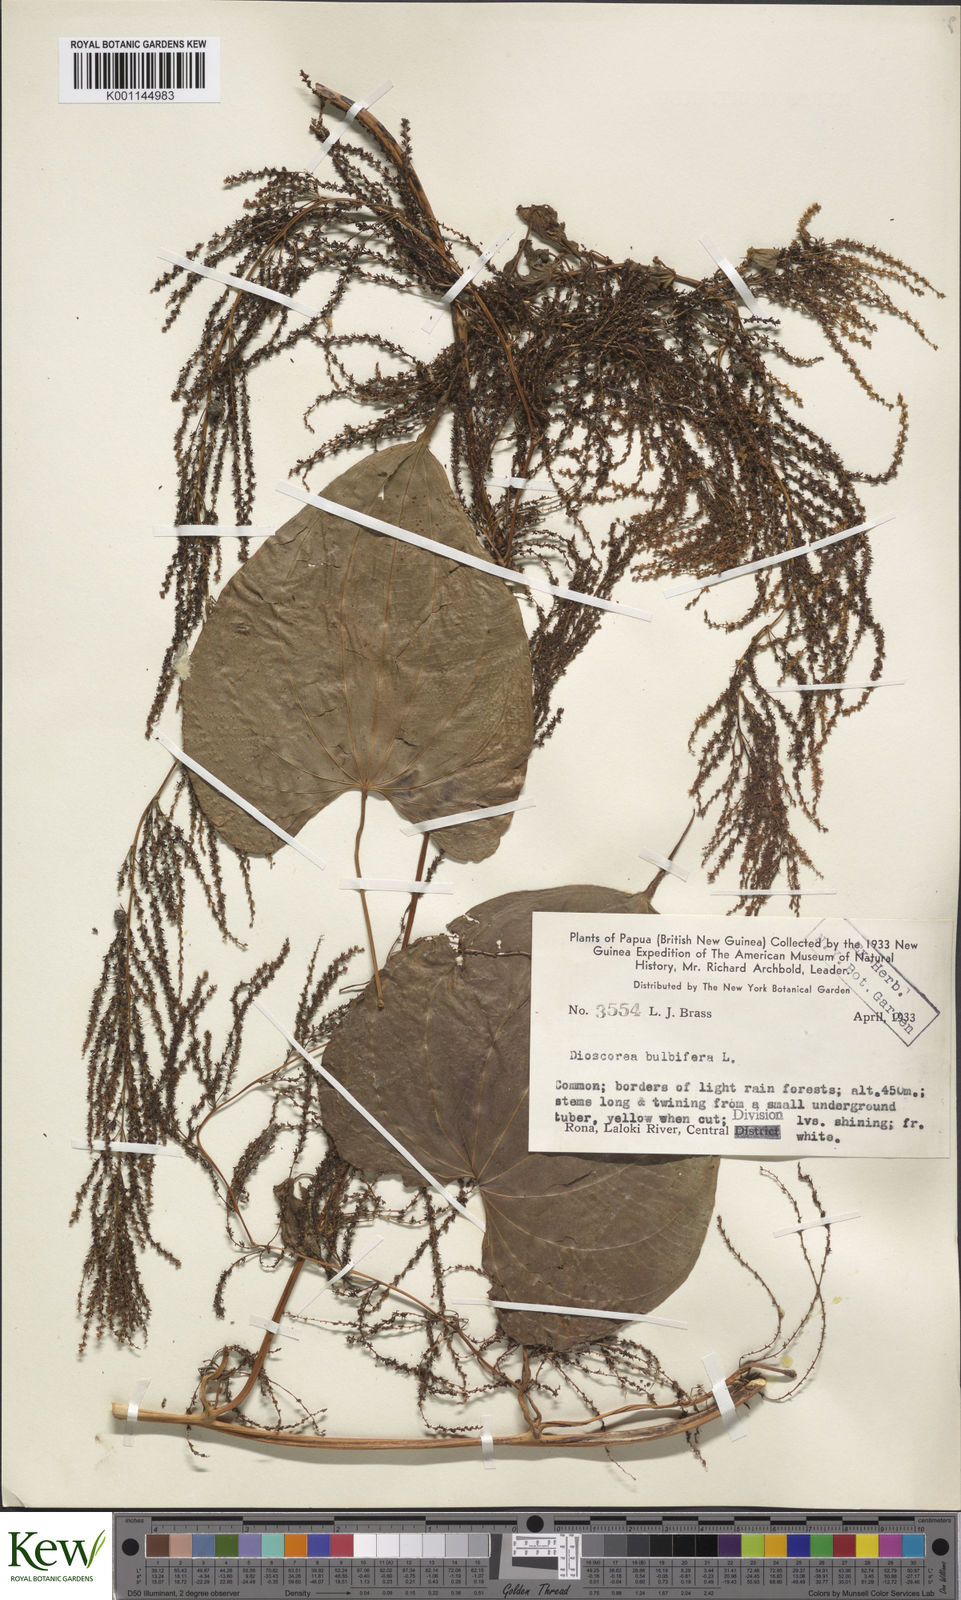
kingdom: Plantae
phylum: Tracheophyta
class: Liliopsida
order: Dioscoreales
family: Dioscoreaceae
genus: Dioscorea
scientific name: Dioscorea bulbifera
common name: Air yam
